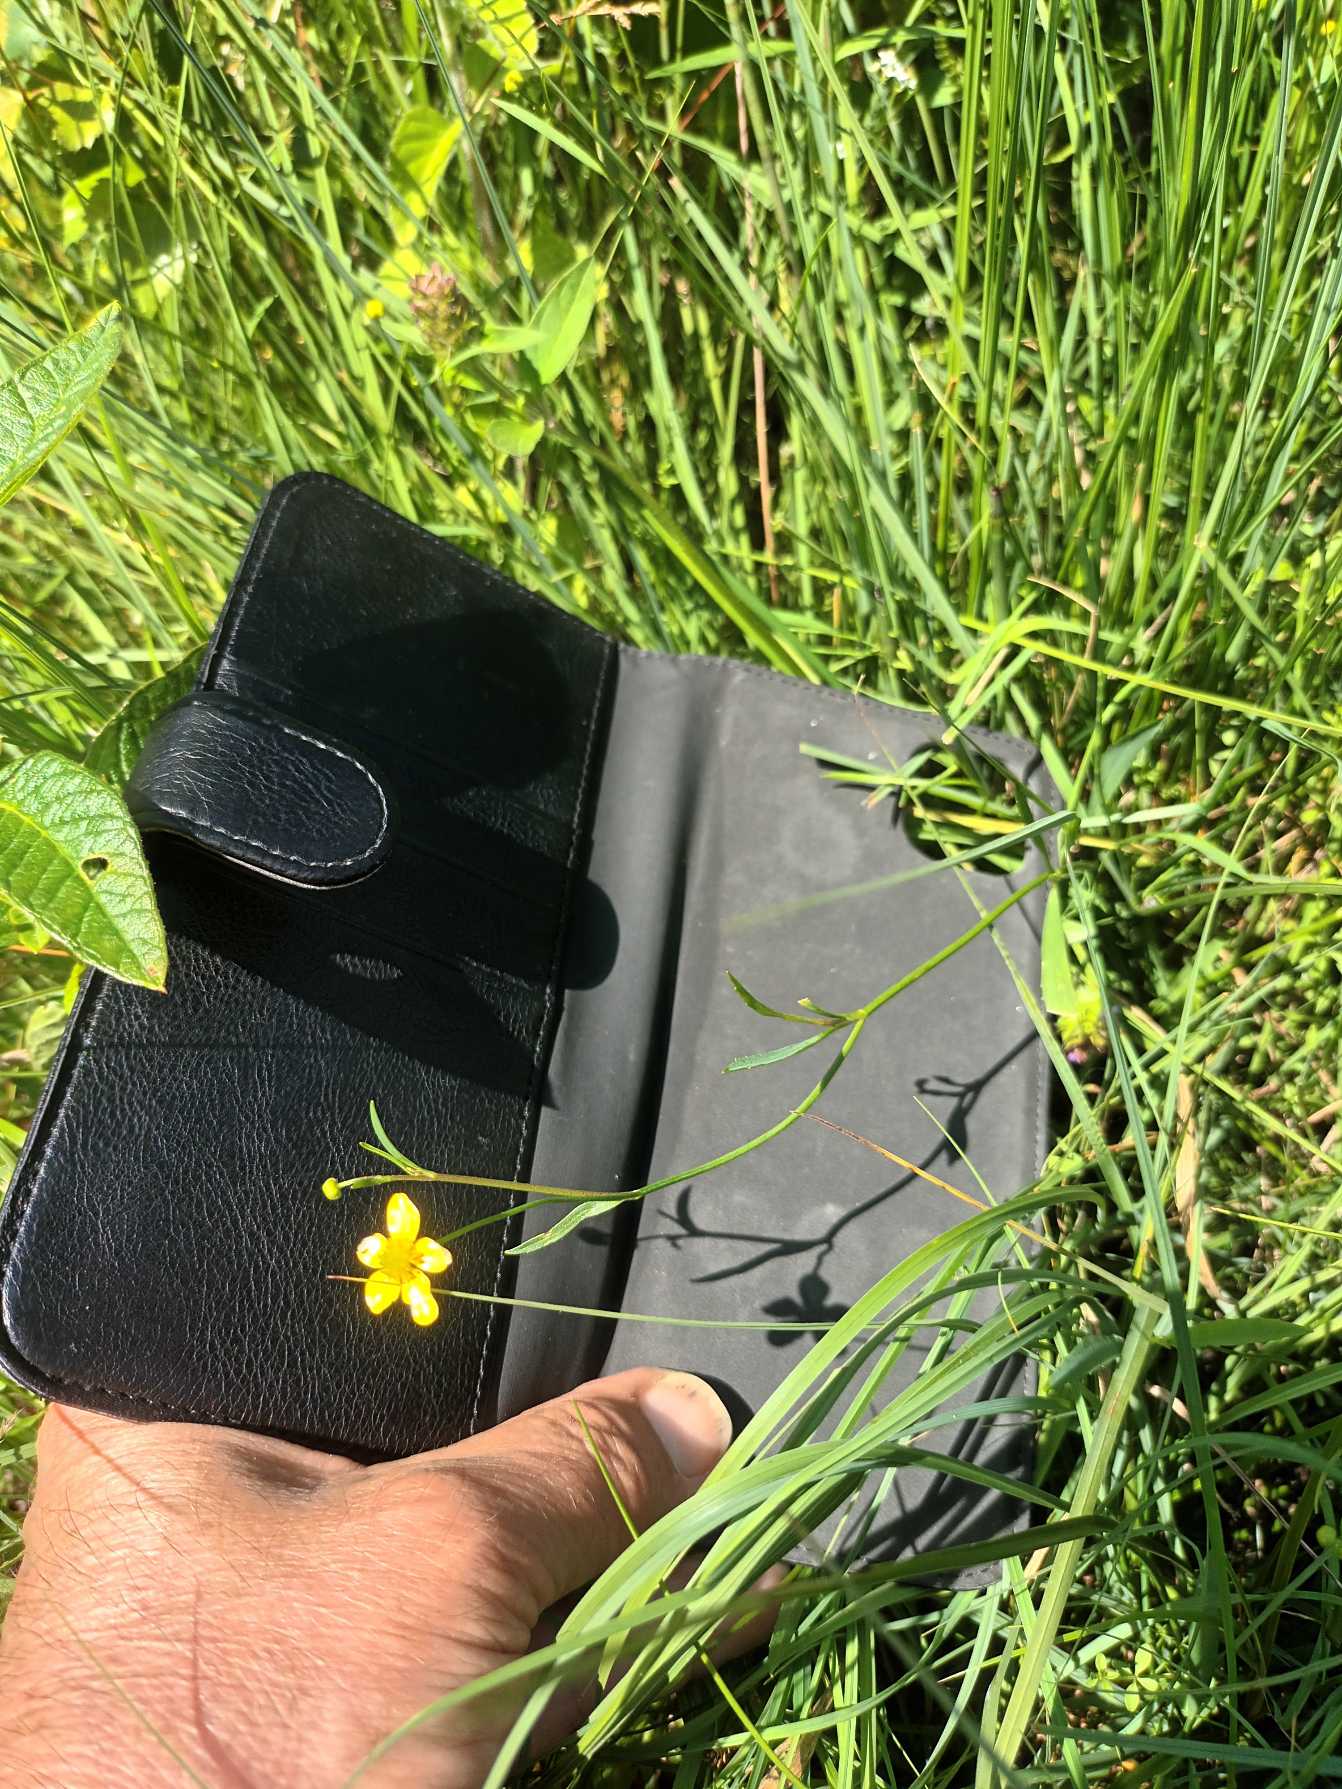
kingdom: Plantae
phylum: Tracheophyta
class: Magnoliopsida
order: Ranunculales
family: Ranunculaceae
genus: Ranunculus
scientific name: Ranunculus flammula
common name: Kær-ranunkel
